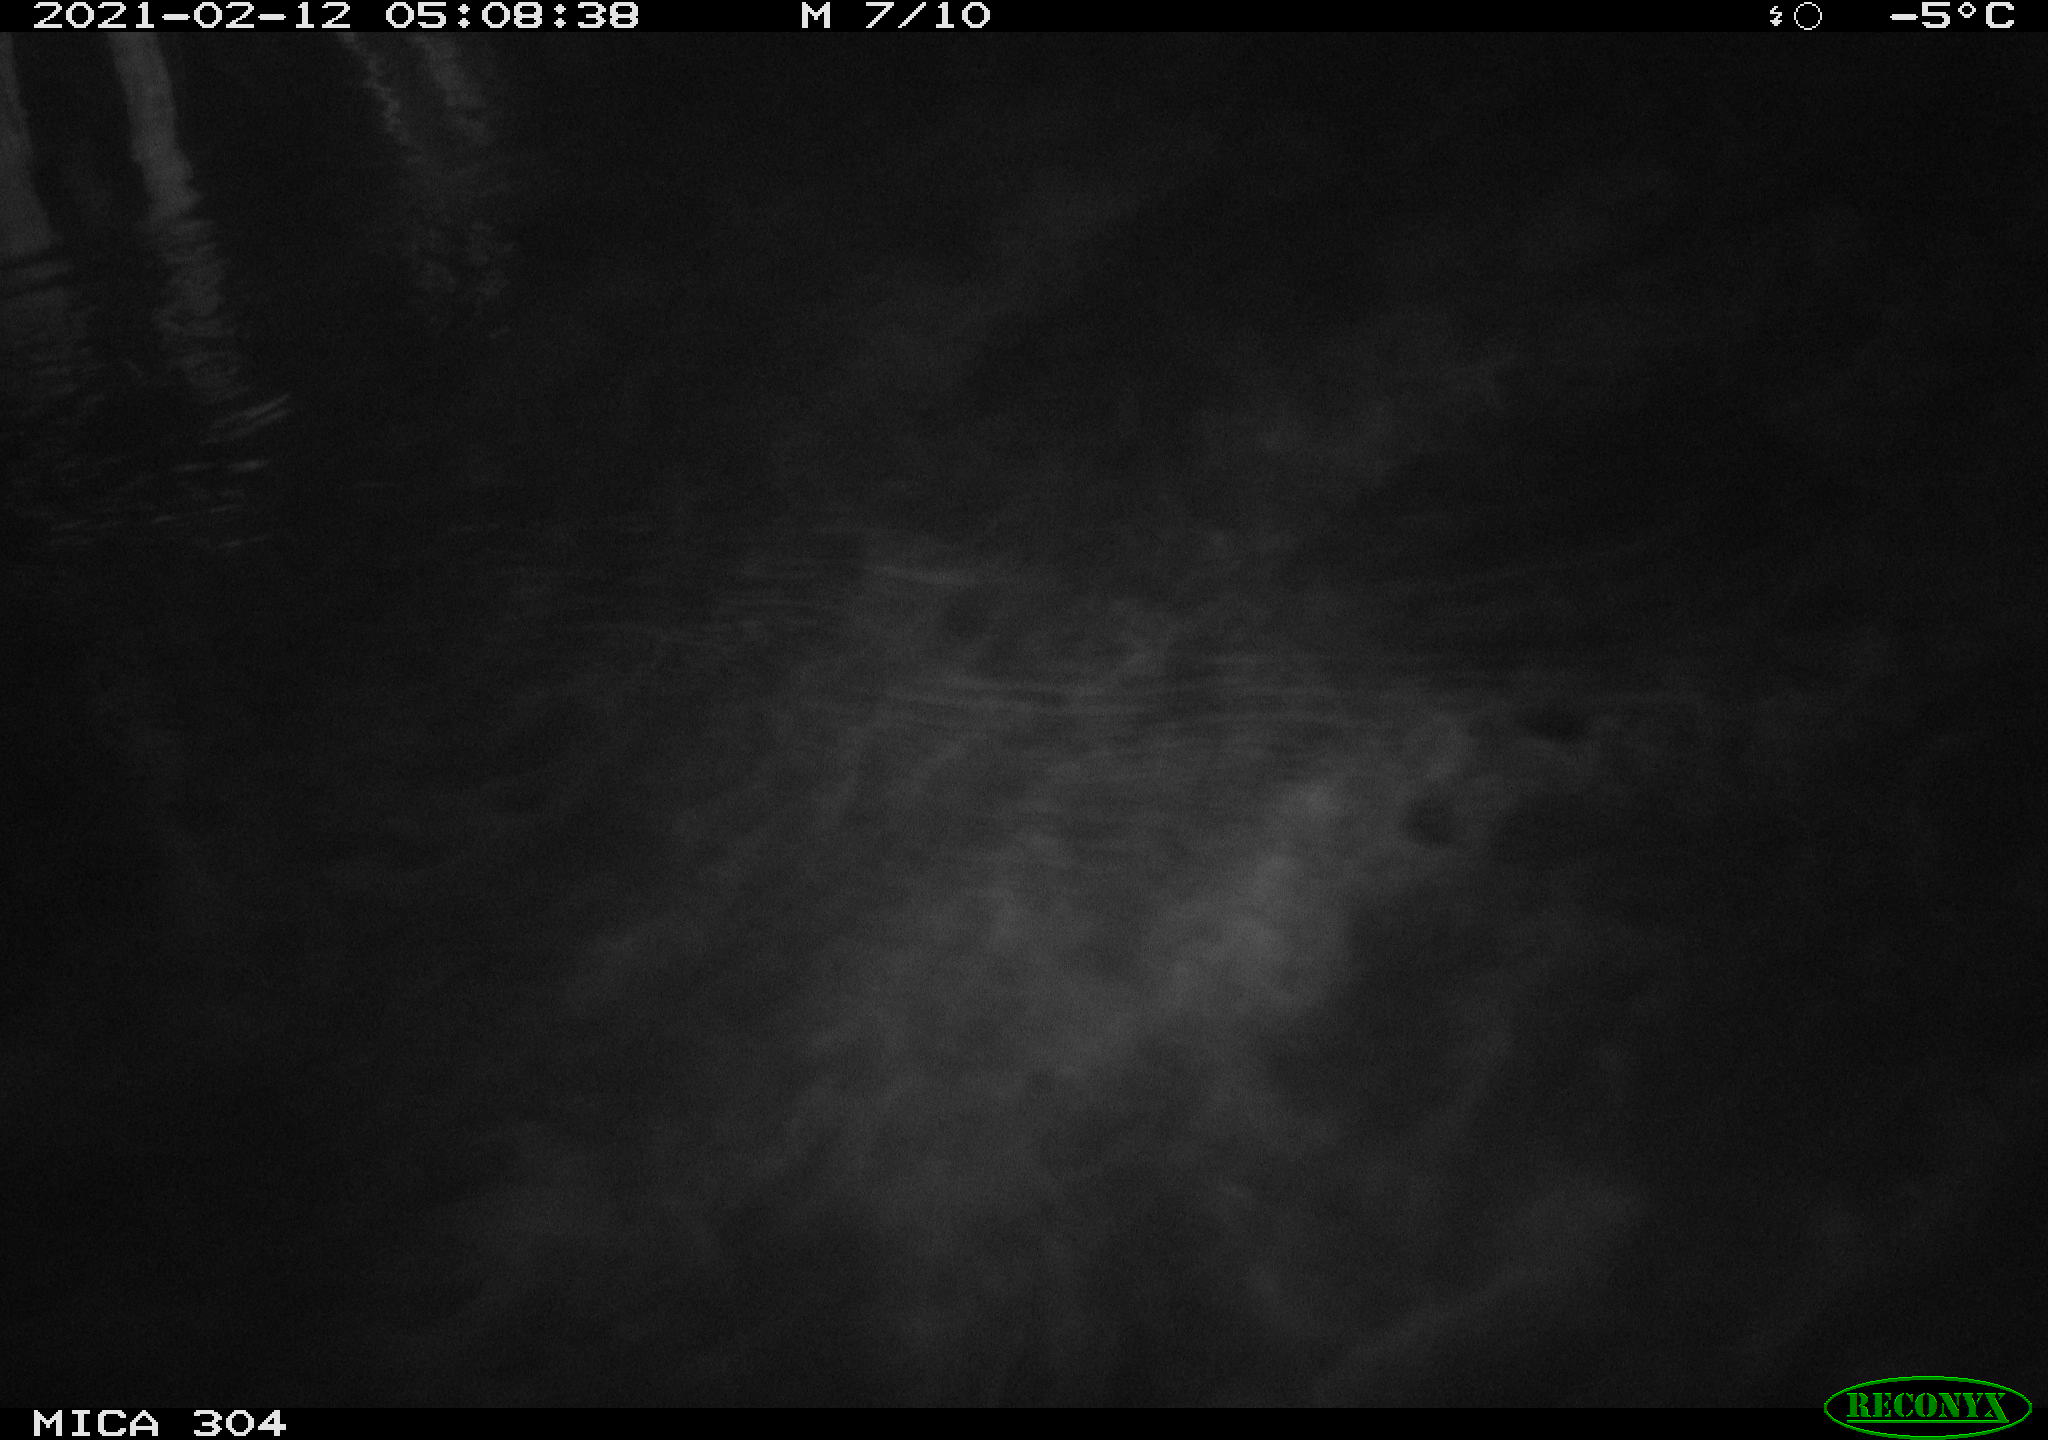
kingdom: Animalia
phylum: Chordata
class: Mammalia
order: Rodentia
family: Muridae
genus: Rattus
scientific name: Rattus norvegicus
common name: Brown rat
